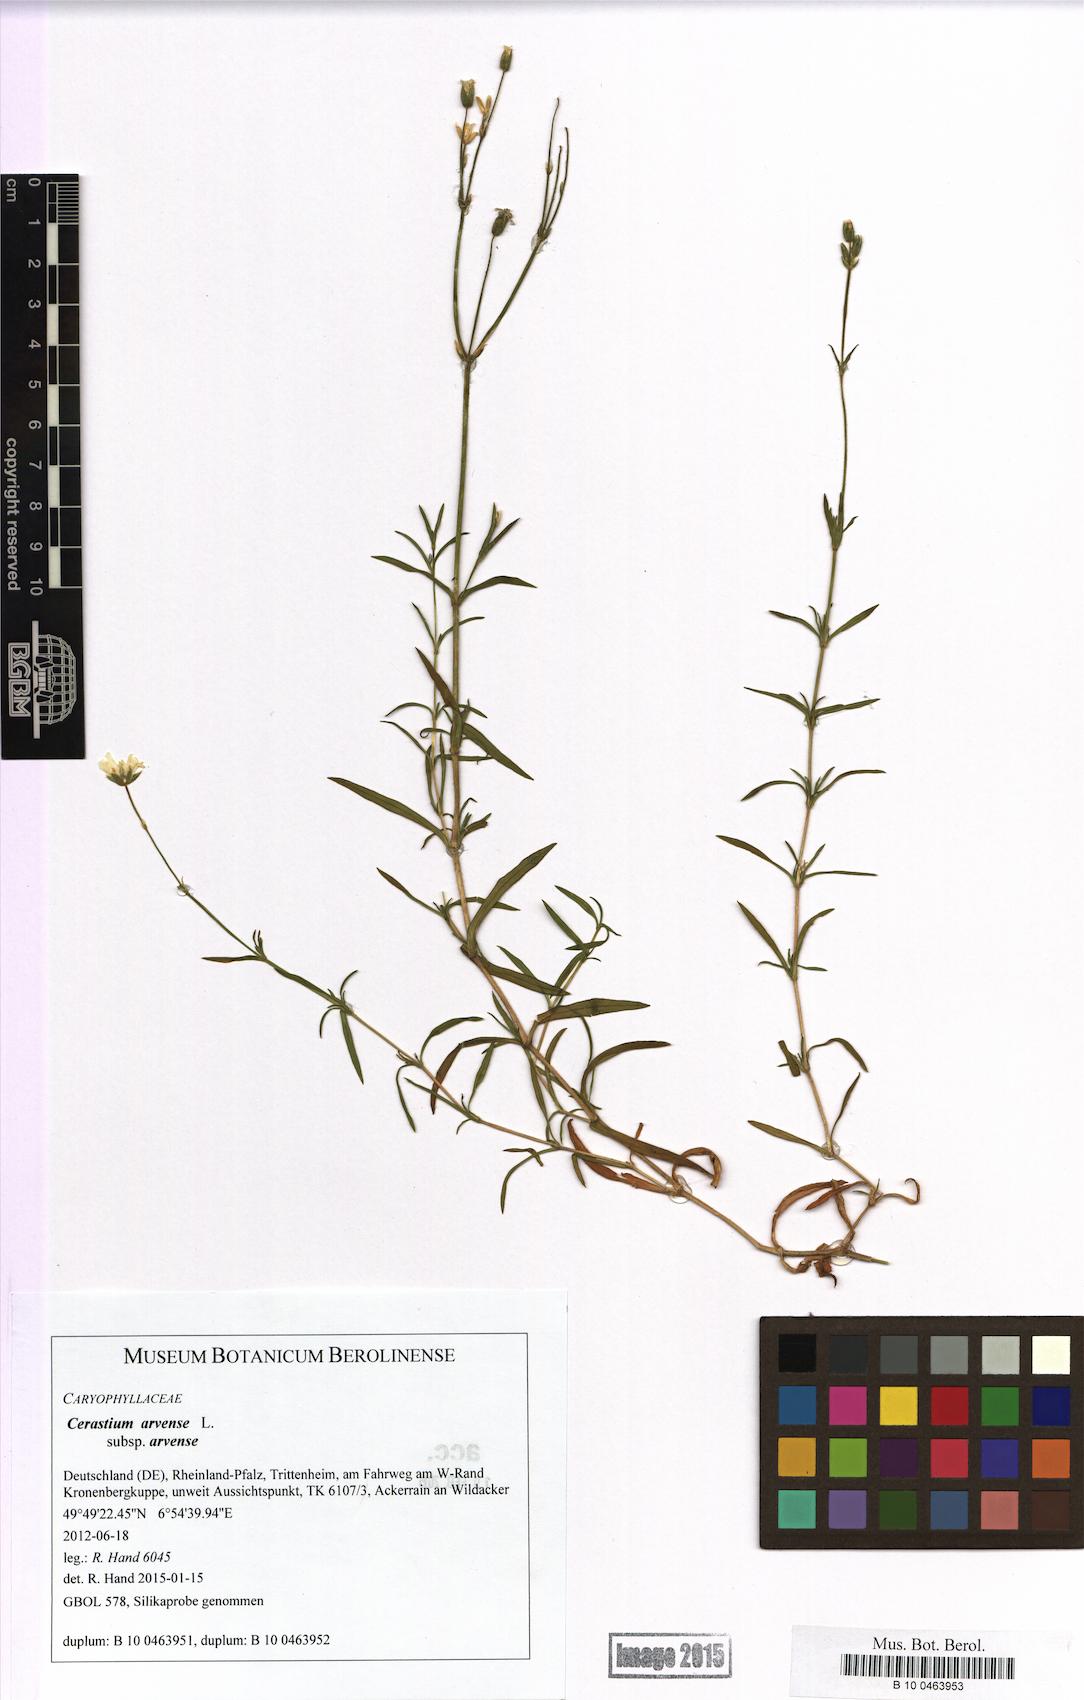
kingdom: Plantae
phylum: Tracheophyta
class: Magnoliopsida
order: Caryophyllales
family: Caryophyllaceae
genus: Cerastium
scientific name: Cerastium arvense
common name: Field mouse-ear
